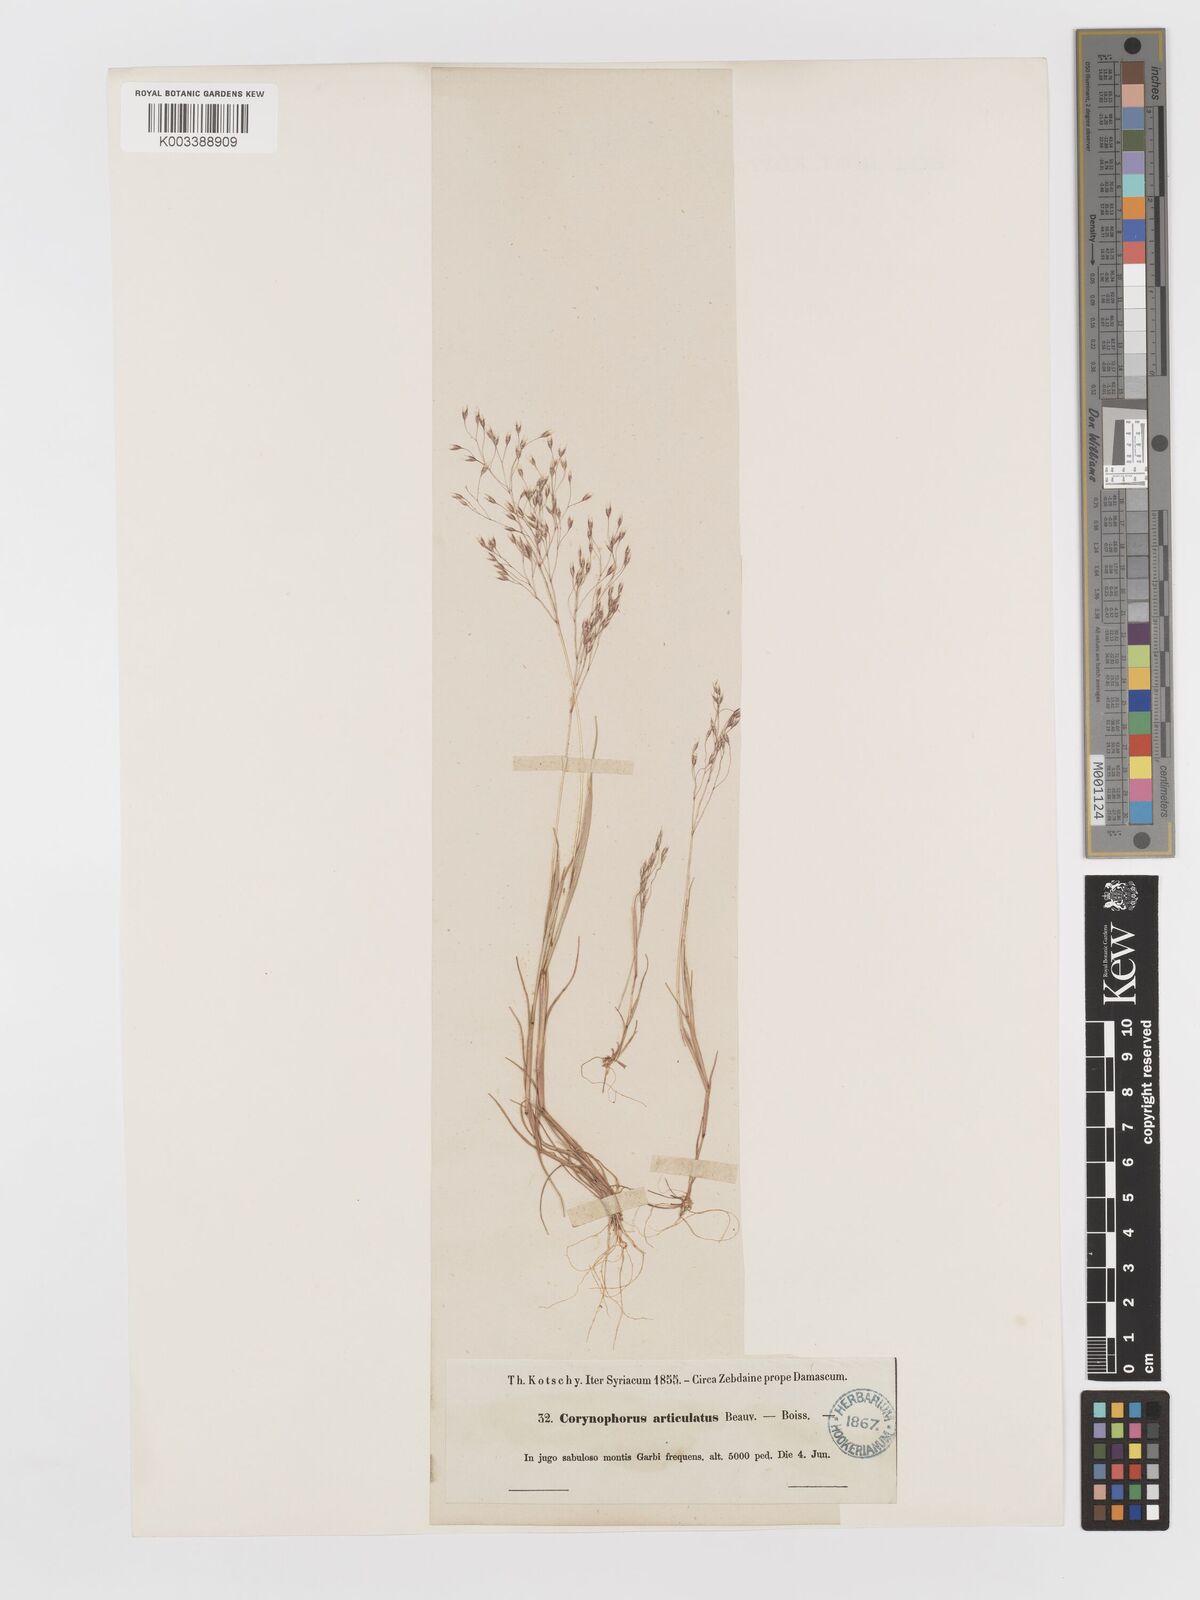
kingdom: Plantae
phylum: Tracheophyta
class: Liliopsida
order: Poales
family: Poaceae
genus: Corynephorus
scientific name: Corynephorus divaricatus
